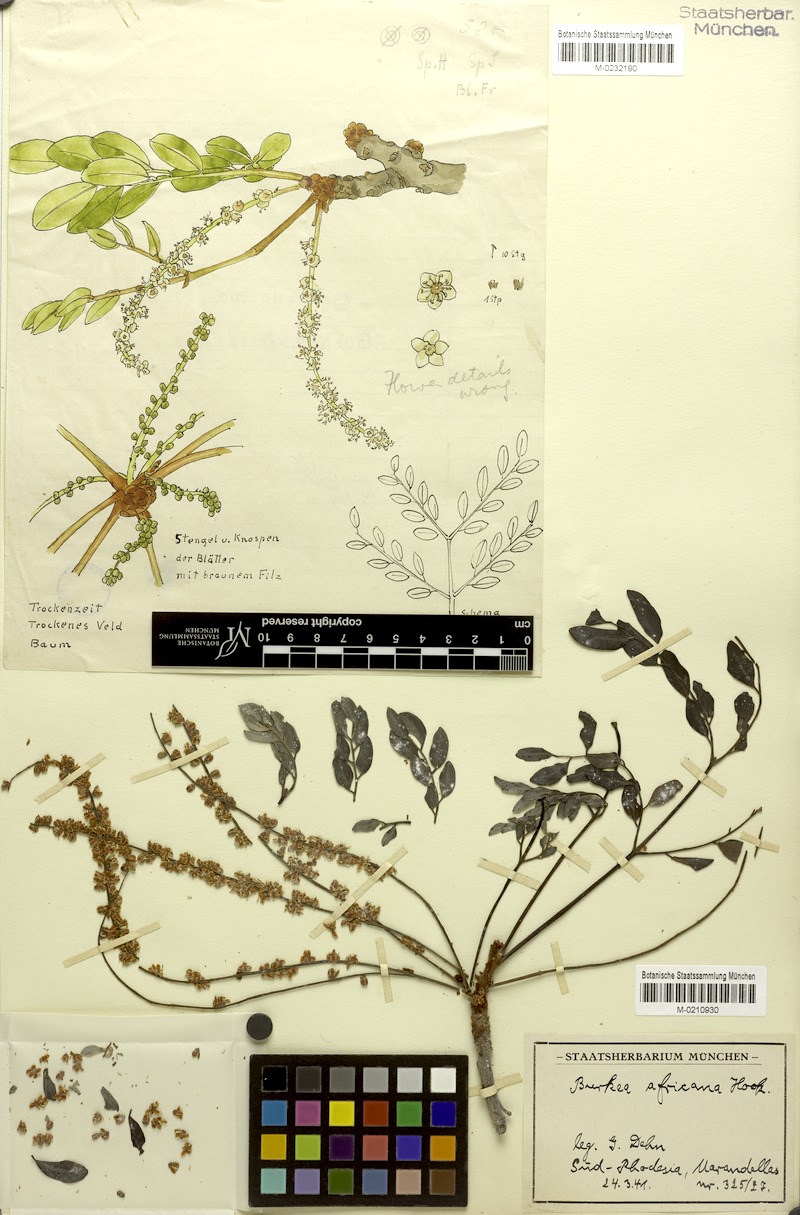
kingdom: Plantae
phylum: Tracheophyta
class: Magnoliopsida
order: Fabales
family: Fabaceae
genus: Burkea
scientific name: Burkea africana
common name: Mkalati tree
